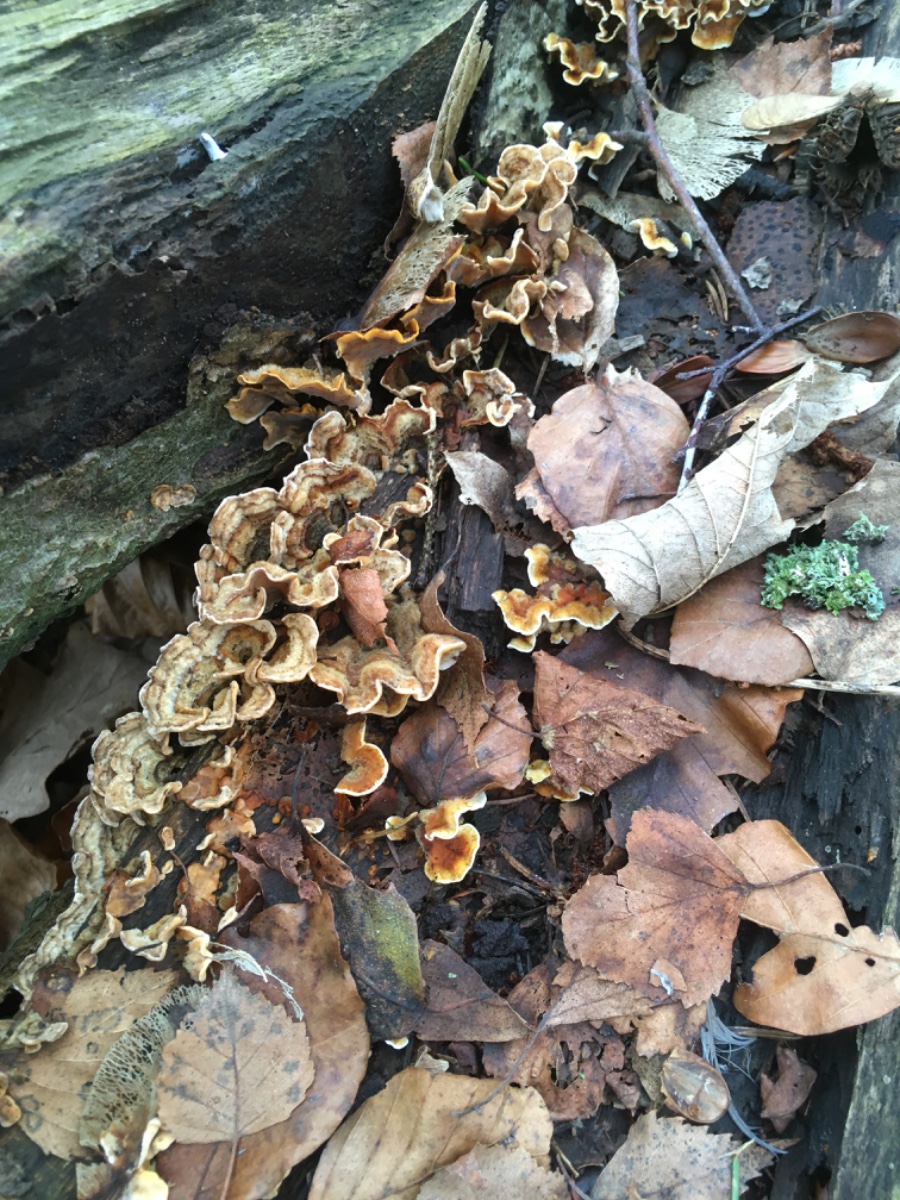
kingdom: Fungi
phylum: Basidiomycota
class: Agaricomycetes
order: Russulales
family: Stereaceae
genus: Stereum
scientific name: Stereum hirsutum
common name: håret lædersvamp
